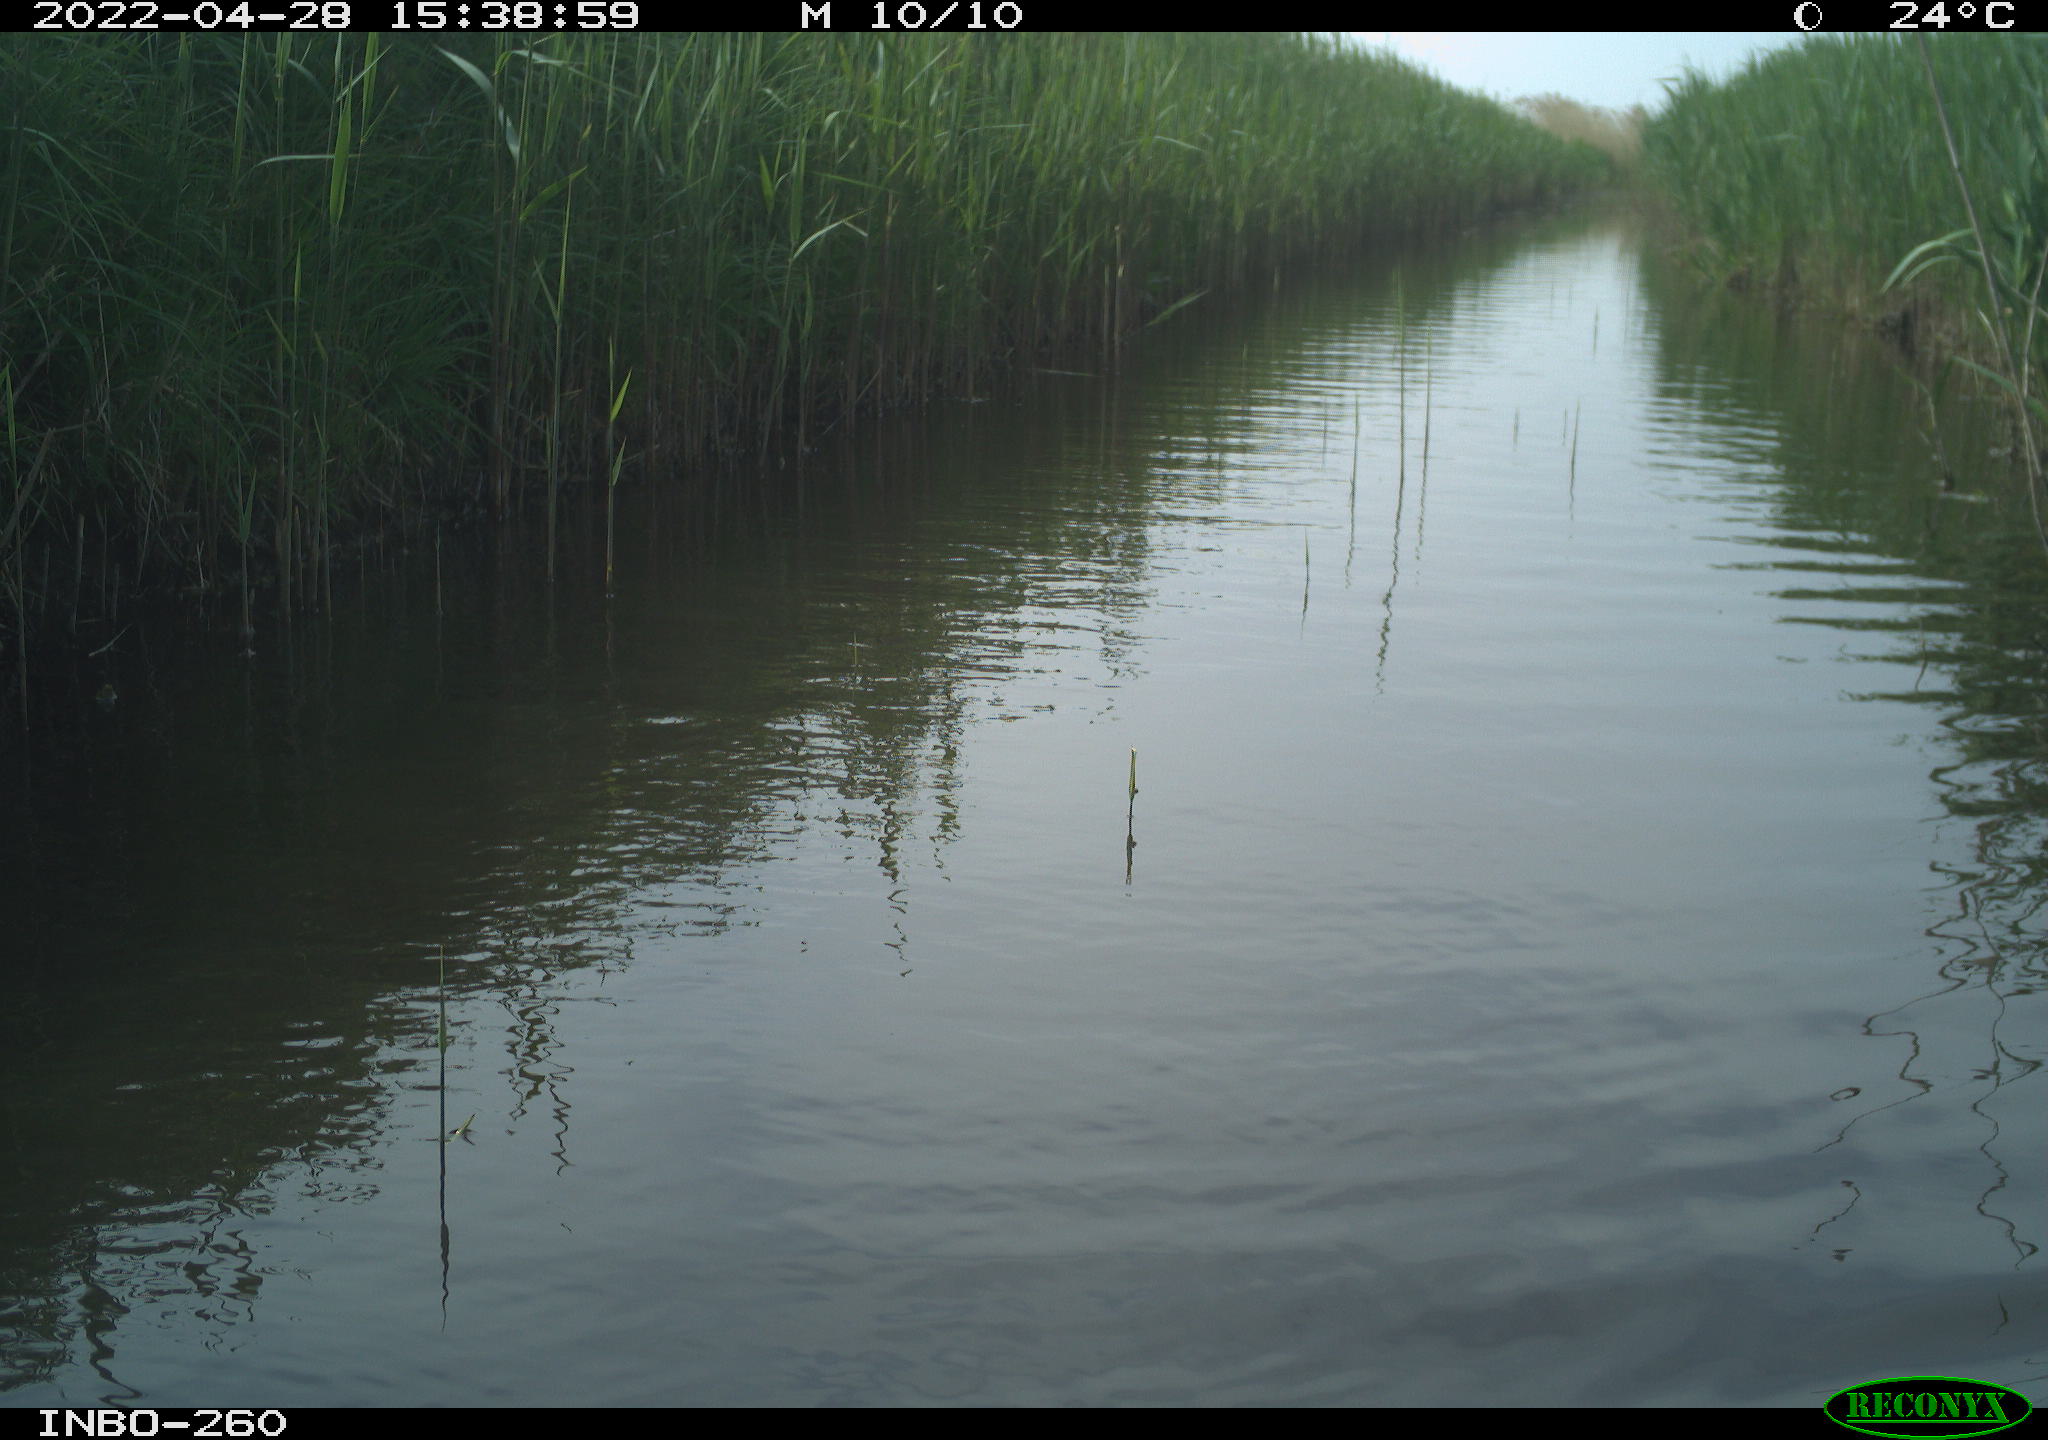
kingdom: Animalia
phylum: Chordata
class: Aves
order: Gruiformes
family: Rallidae
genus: Fulica
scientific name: Fulica atra
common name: Eurasian coot
